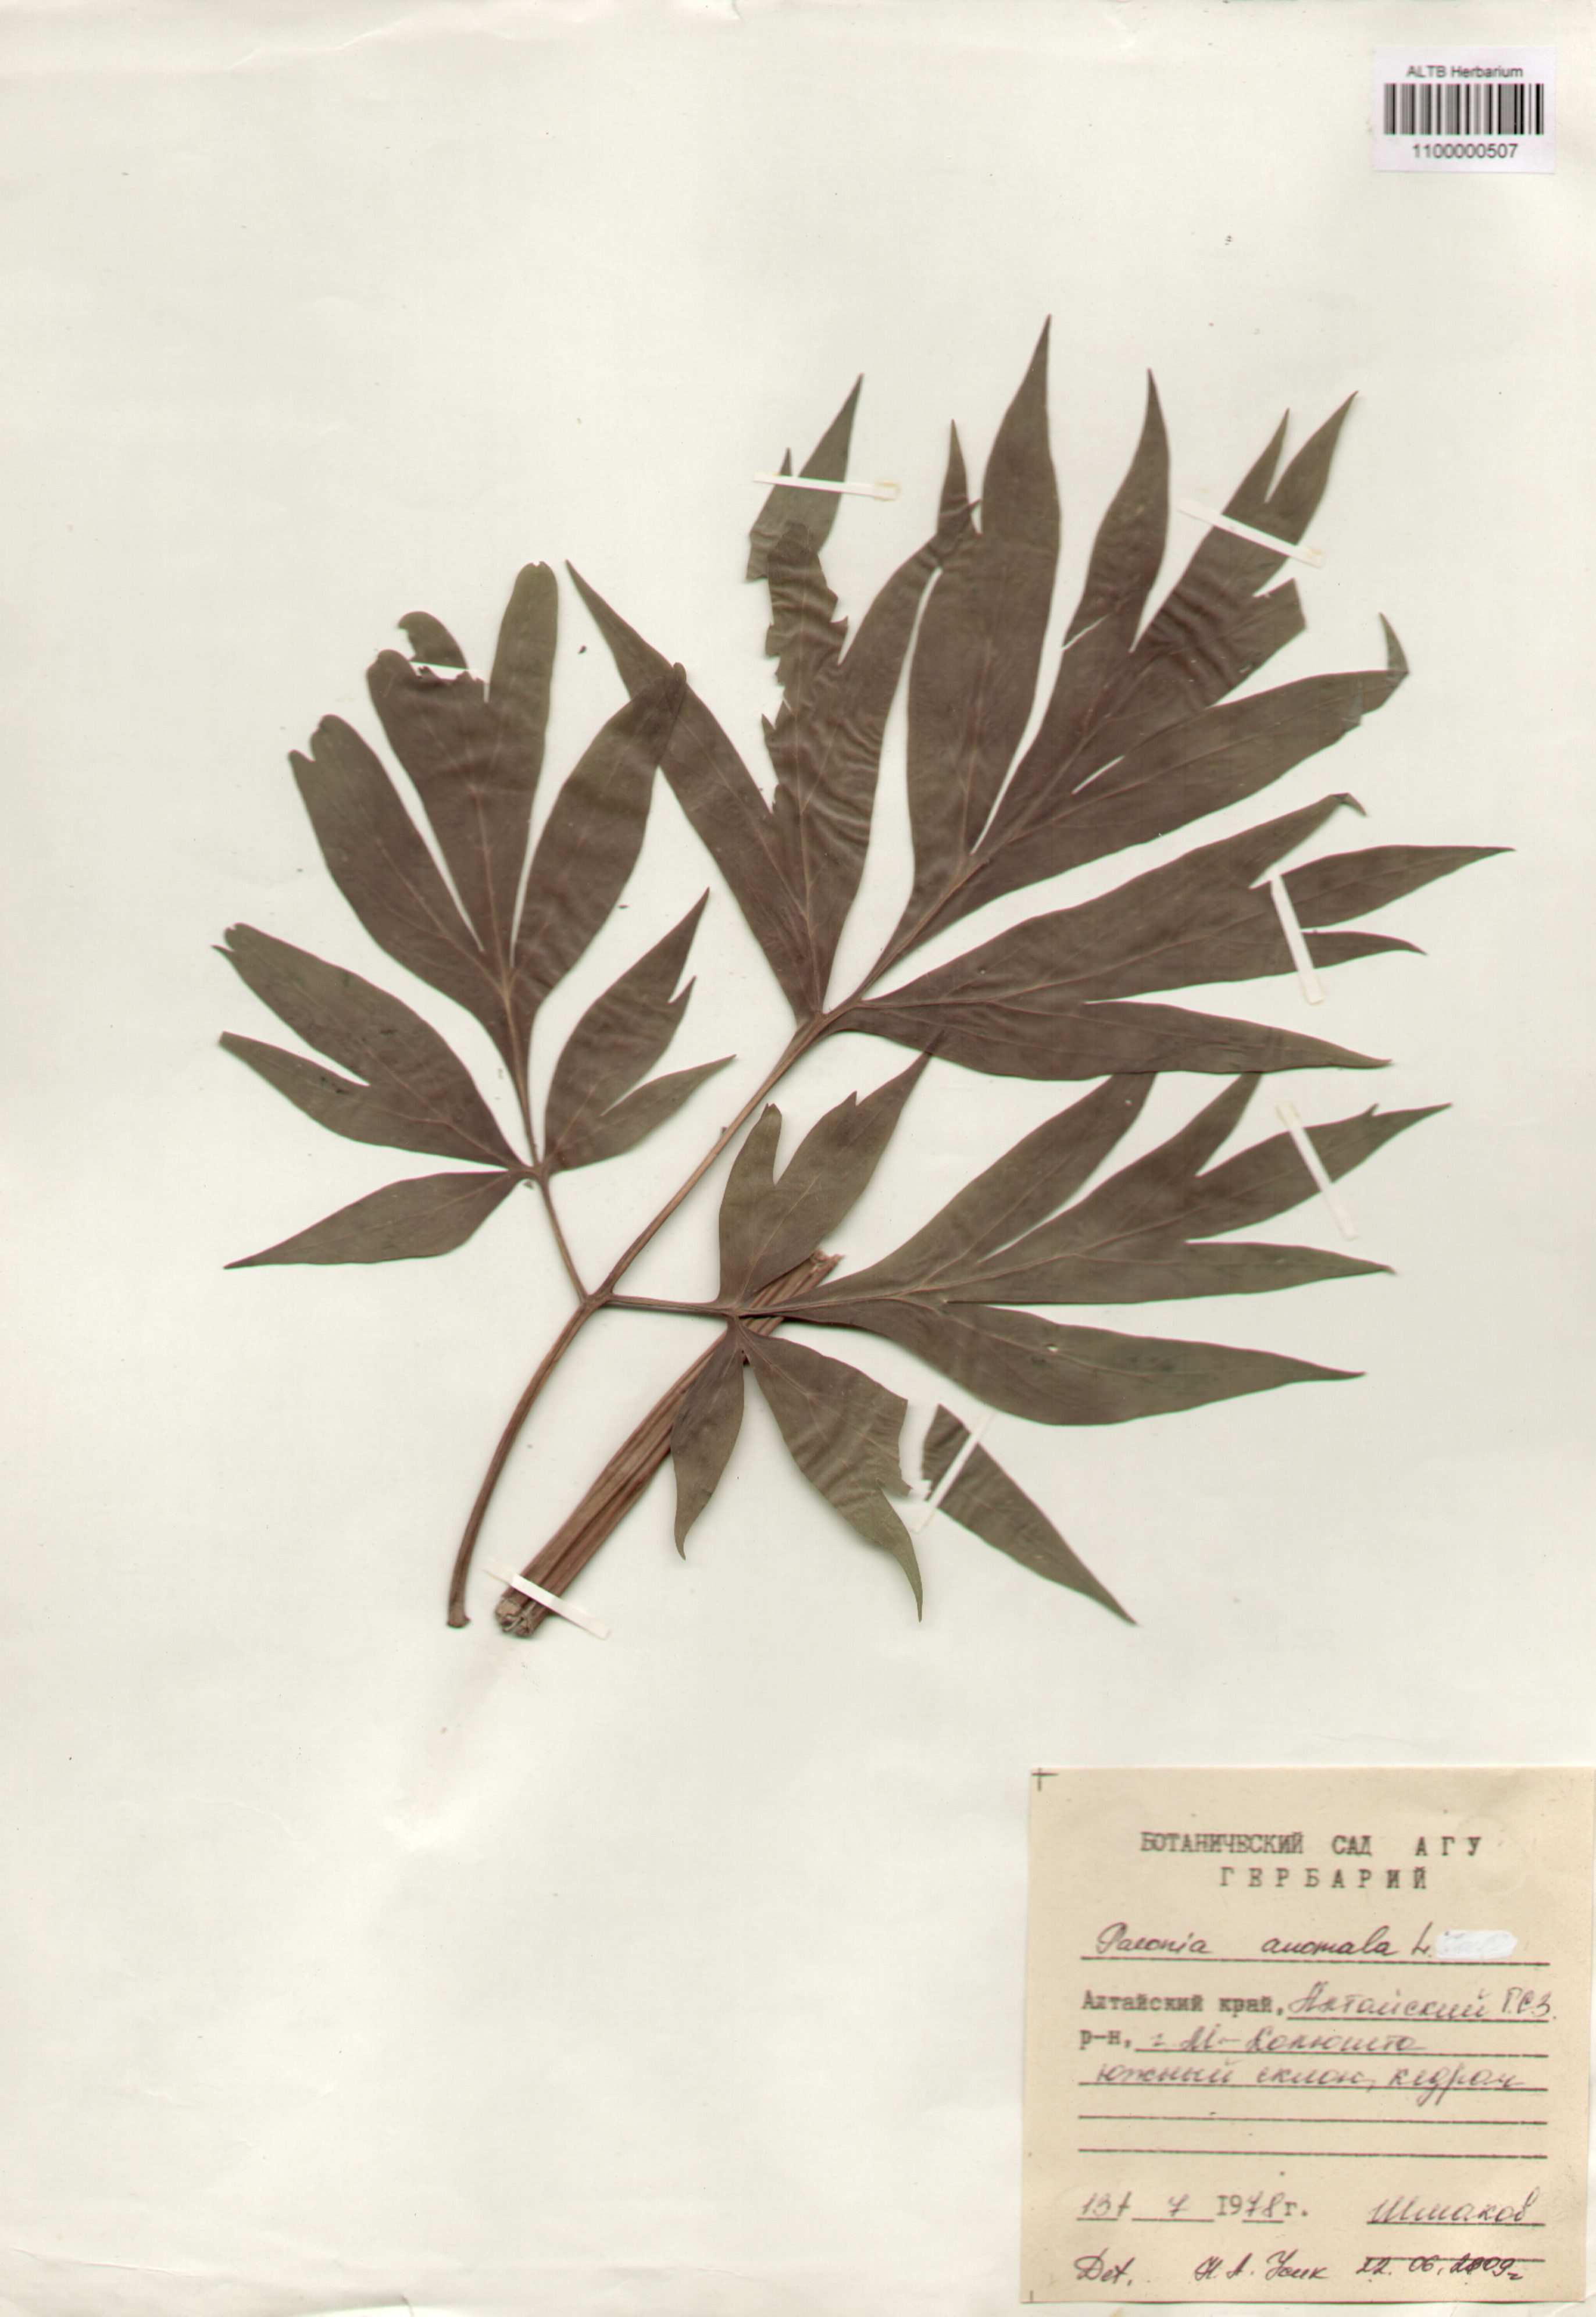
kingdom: Plantae
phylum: Tracheophyta
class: Magnoliopsida
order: Saxifragales
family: Paeoniaceae
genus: Paeonia
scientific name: Paeonia anomala
